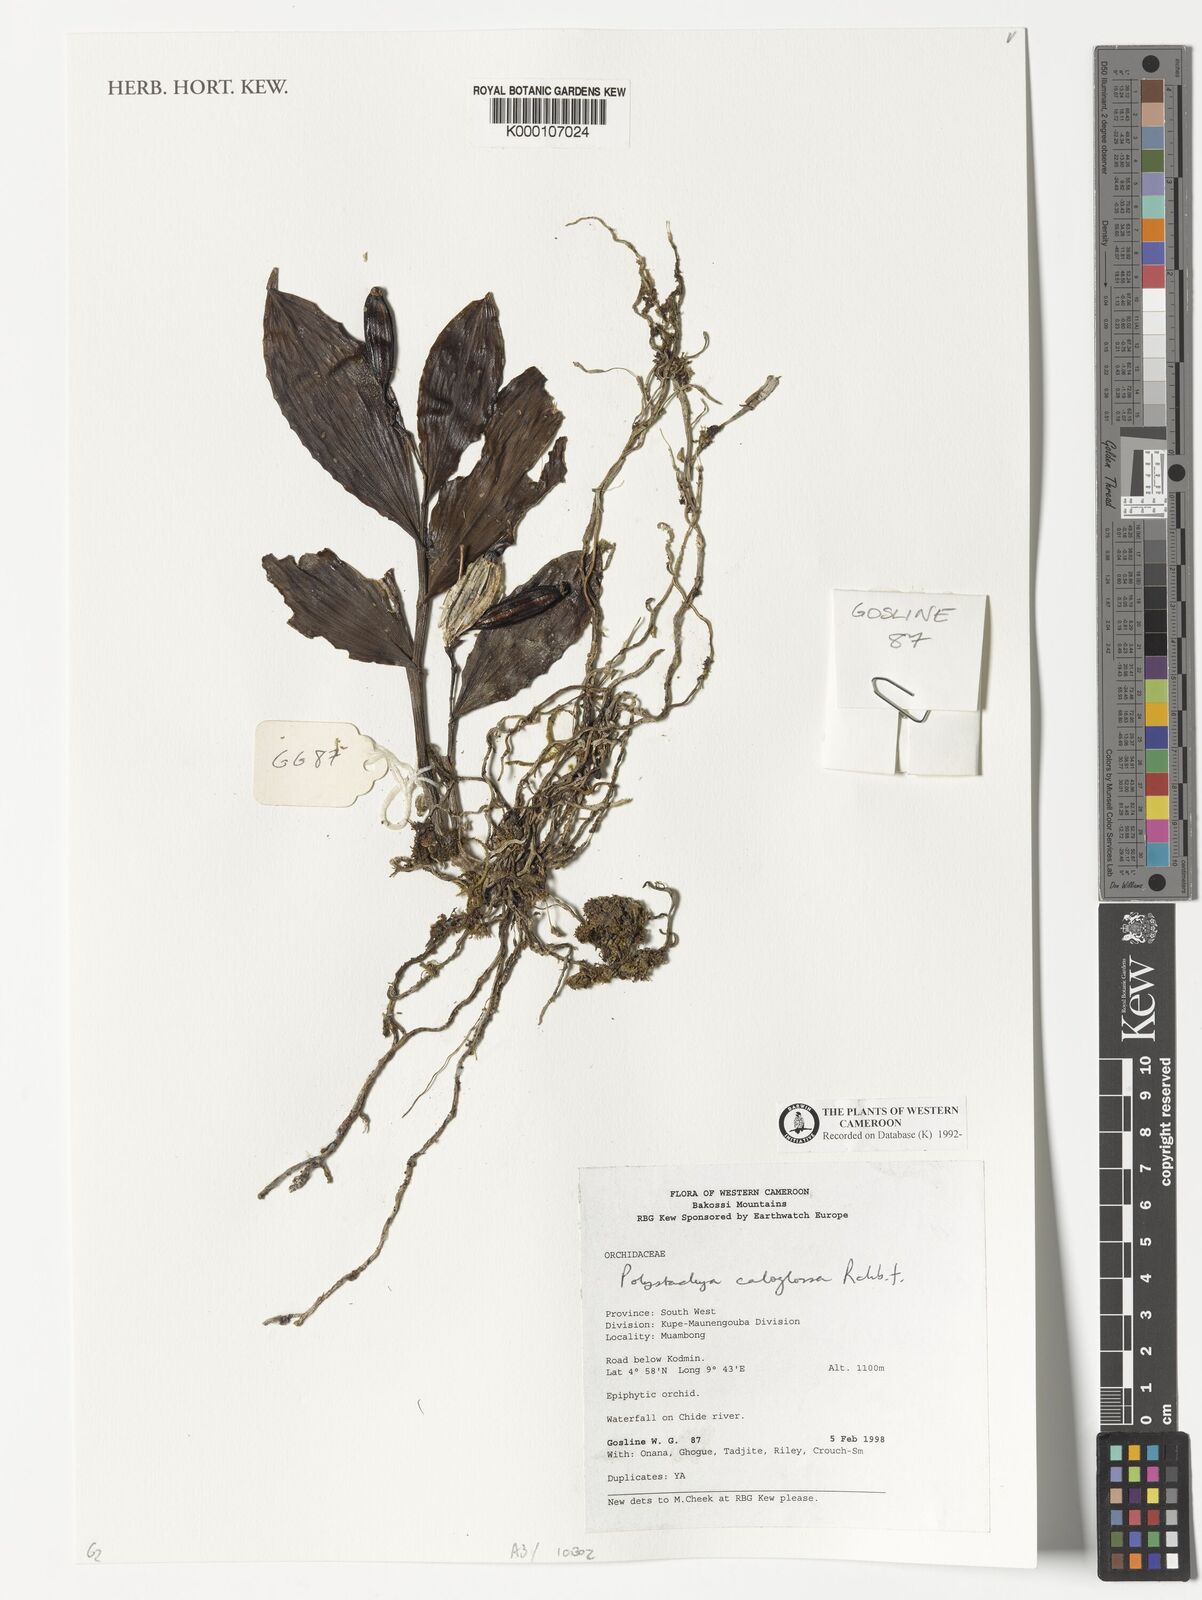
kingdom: Plantae
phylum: Tracheophyta
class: Liliopsida
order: Asparagales
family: Orchidaceae
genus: Polystachya
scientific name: Polystachya caloglossa
